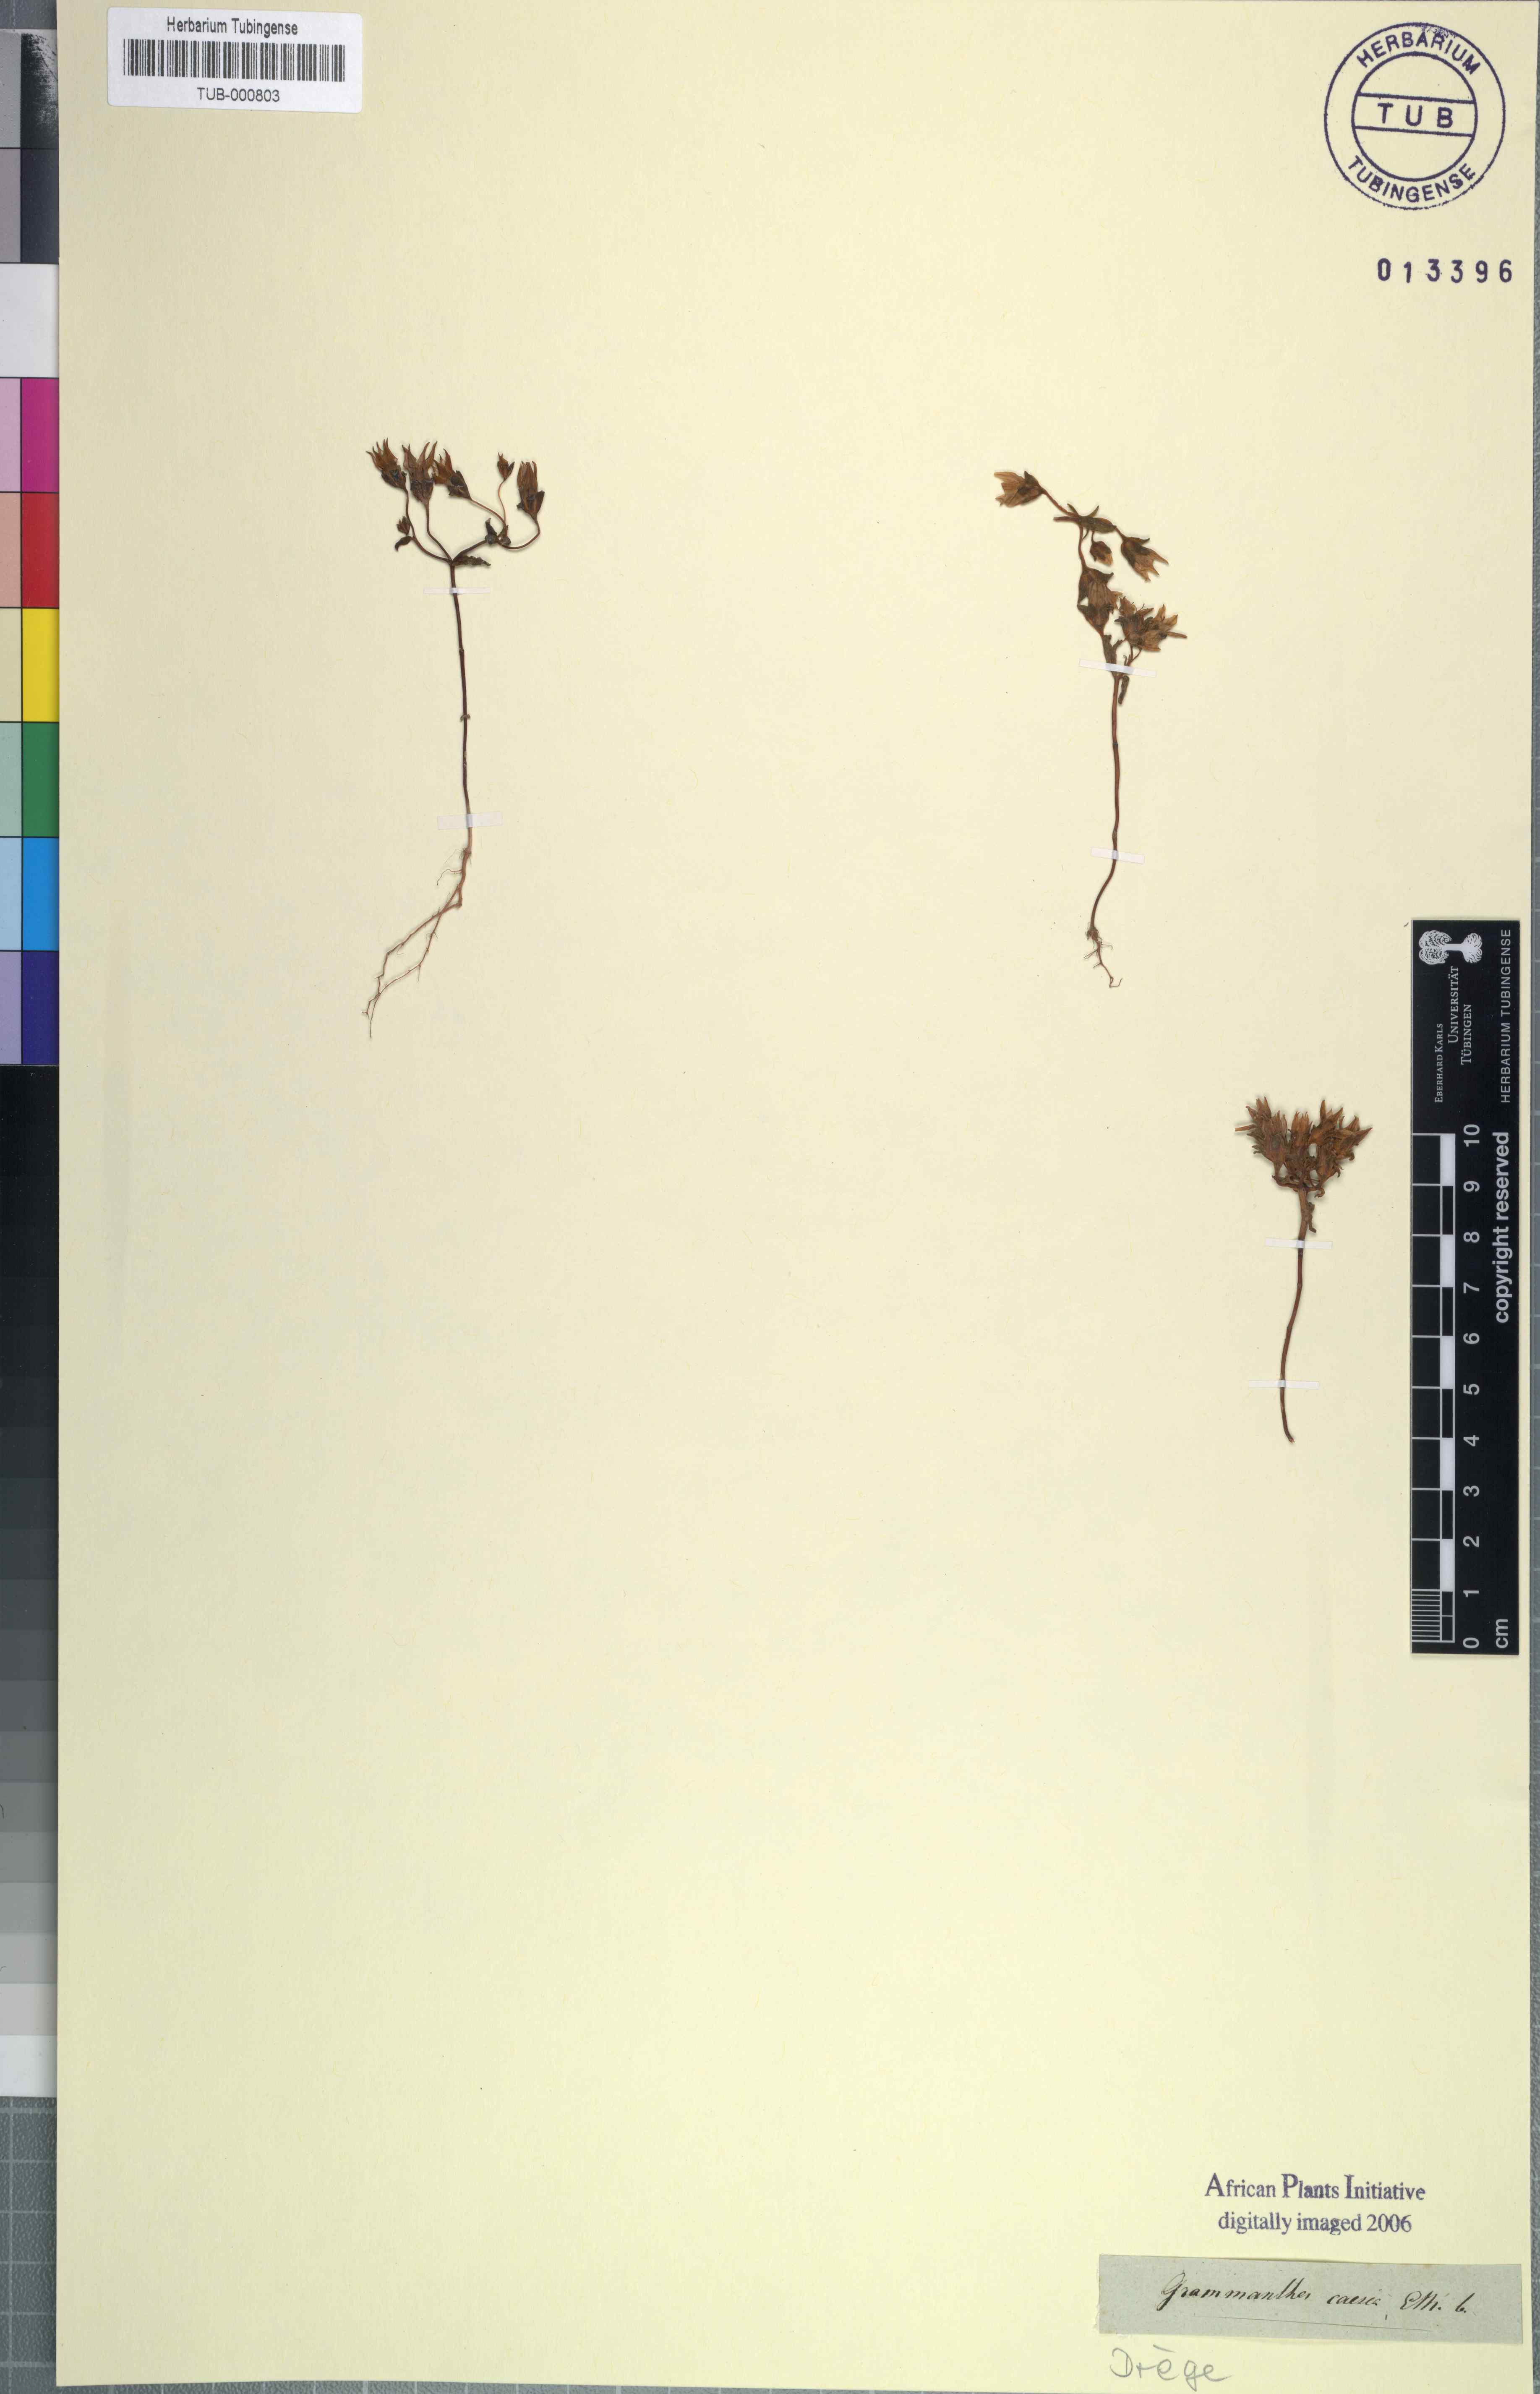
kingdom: Plantae
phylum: Tracheophyta
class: Magnoliopsida
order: Saxifragales
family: Crassulaceae
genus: Crassula
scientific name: Crassula dichotoma
